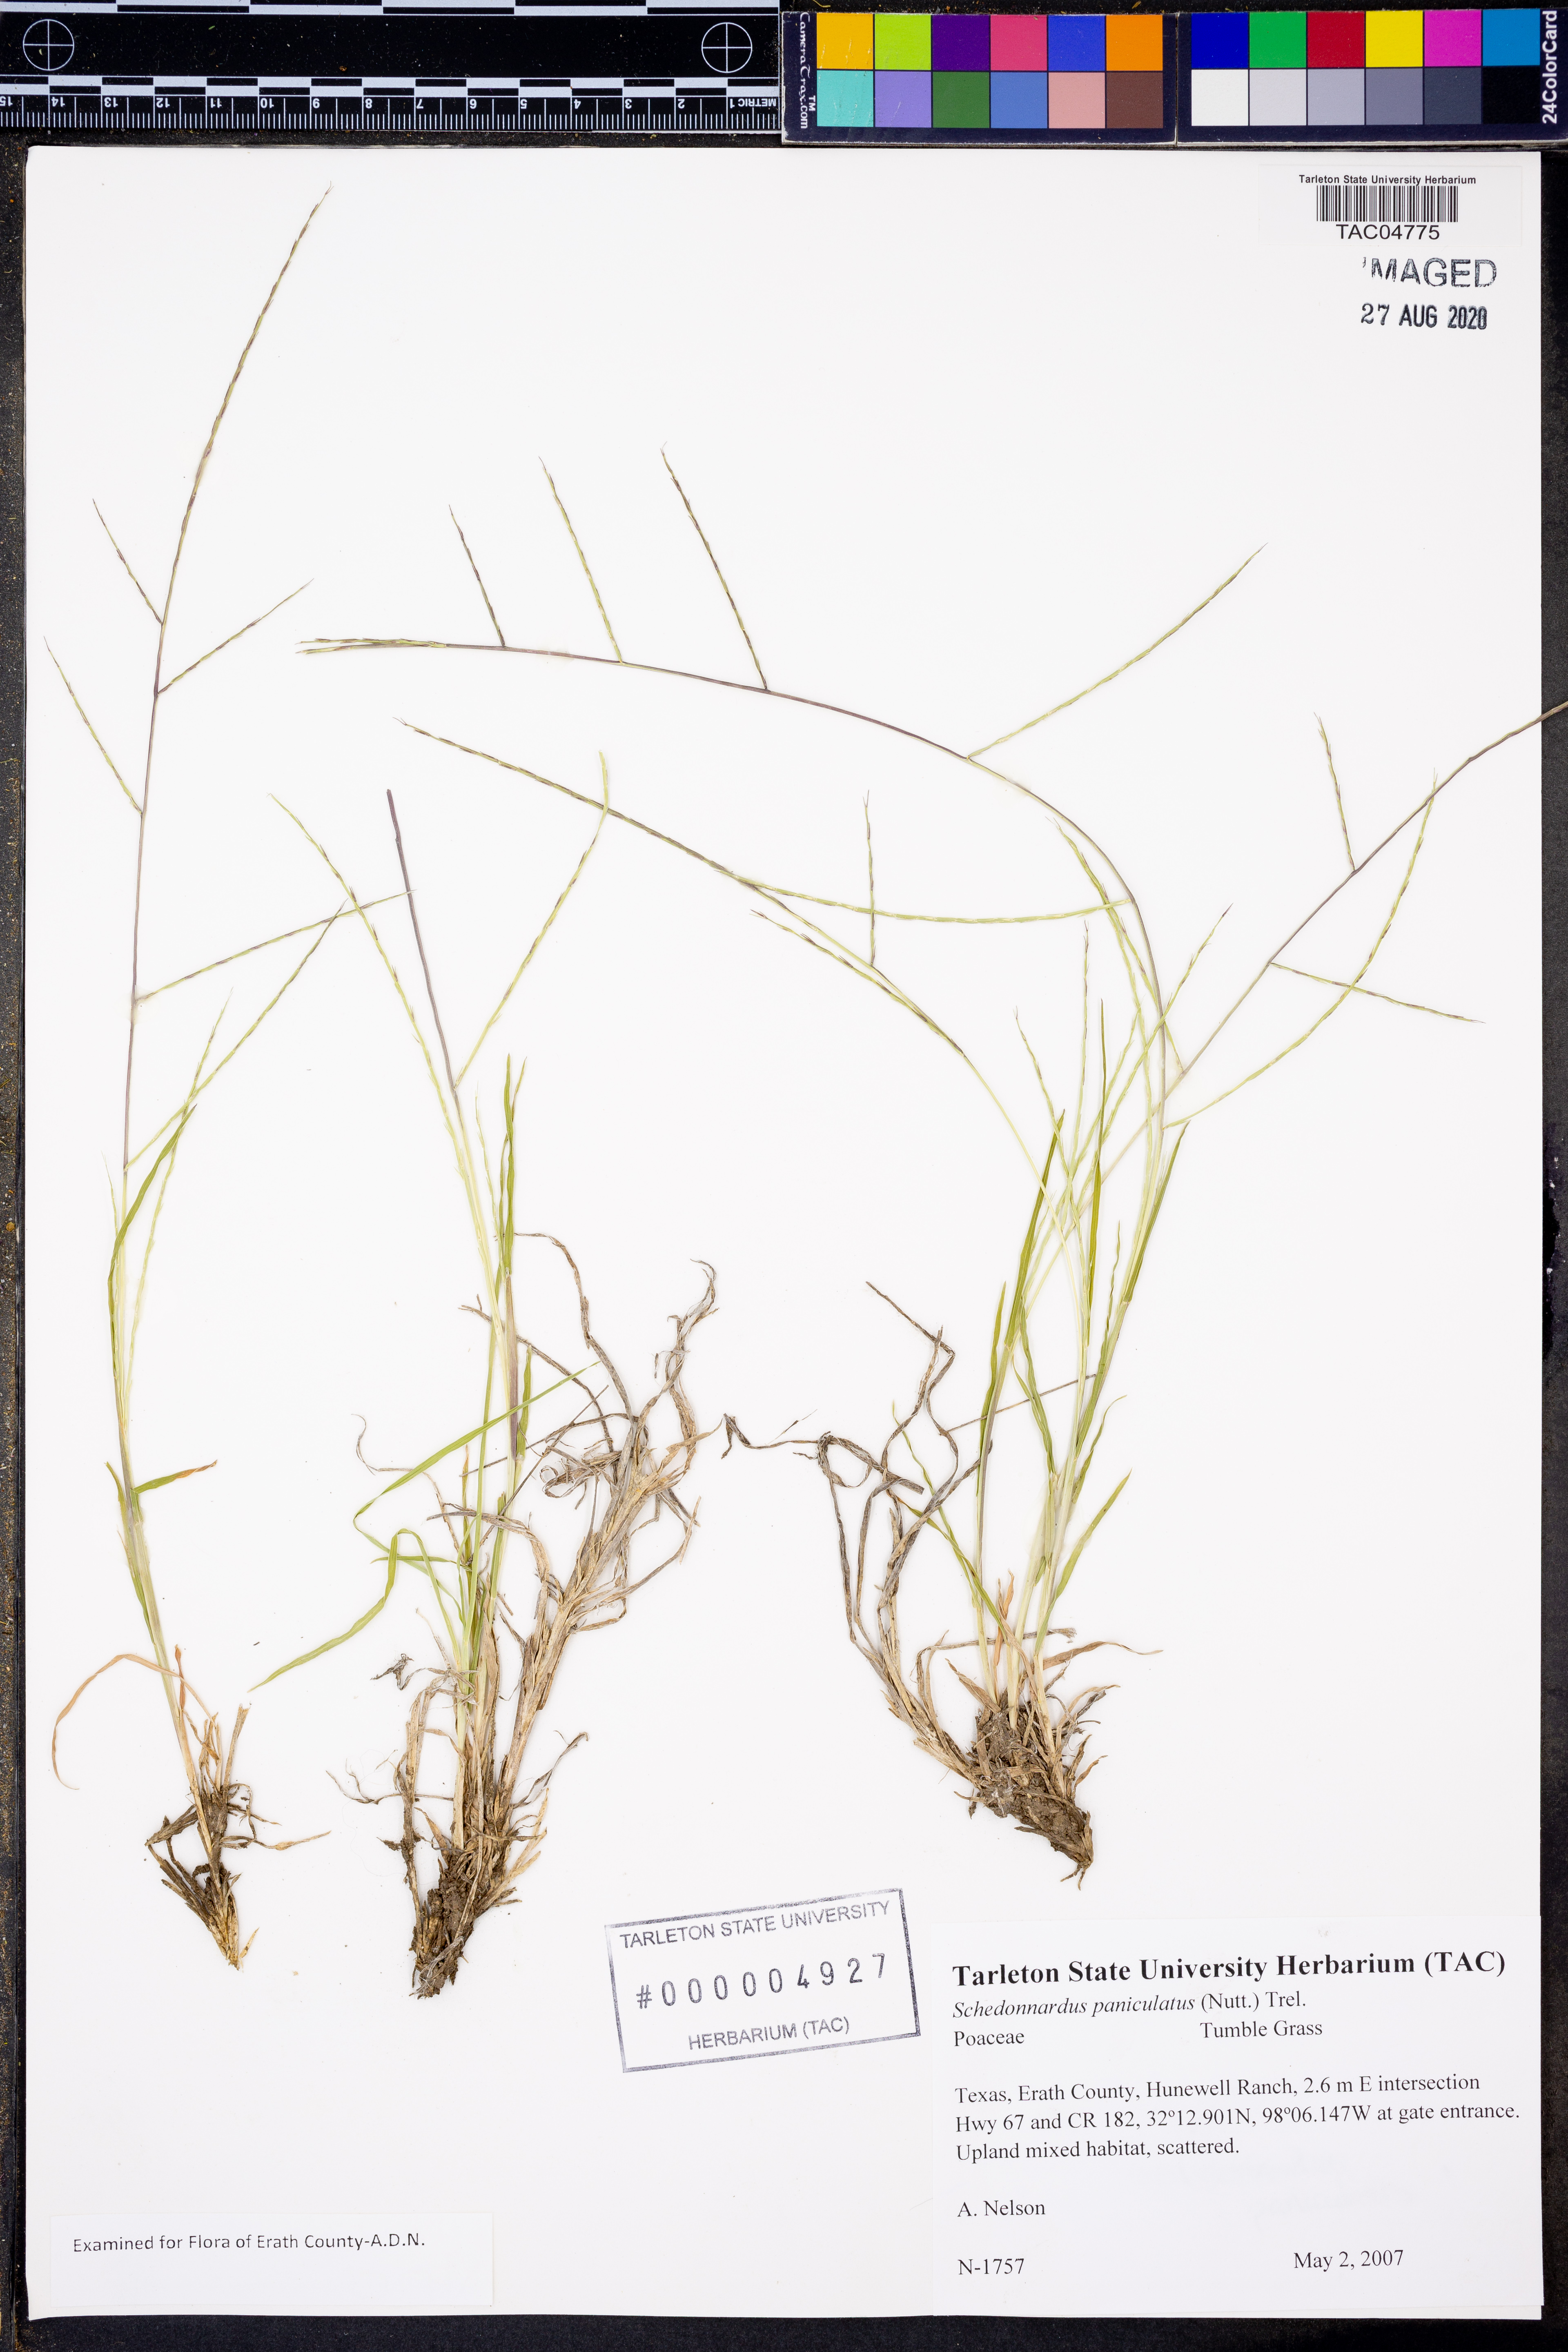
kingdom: Plantae
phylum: Tracheophyta
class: Liliopsida
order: Poales
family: Poaceae
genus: Muhlenbergia
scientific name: Muhlenbergia paniculata
